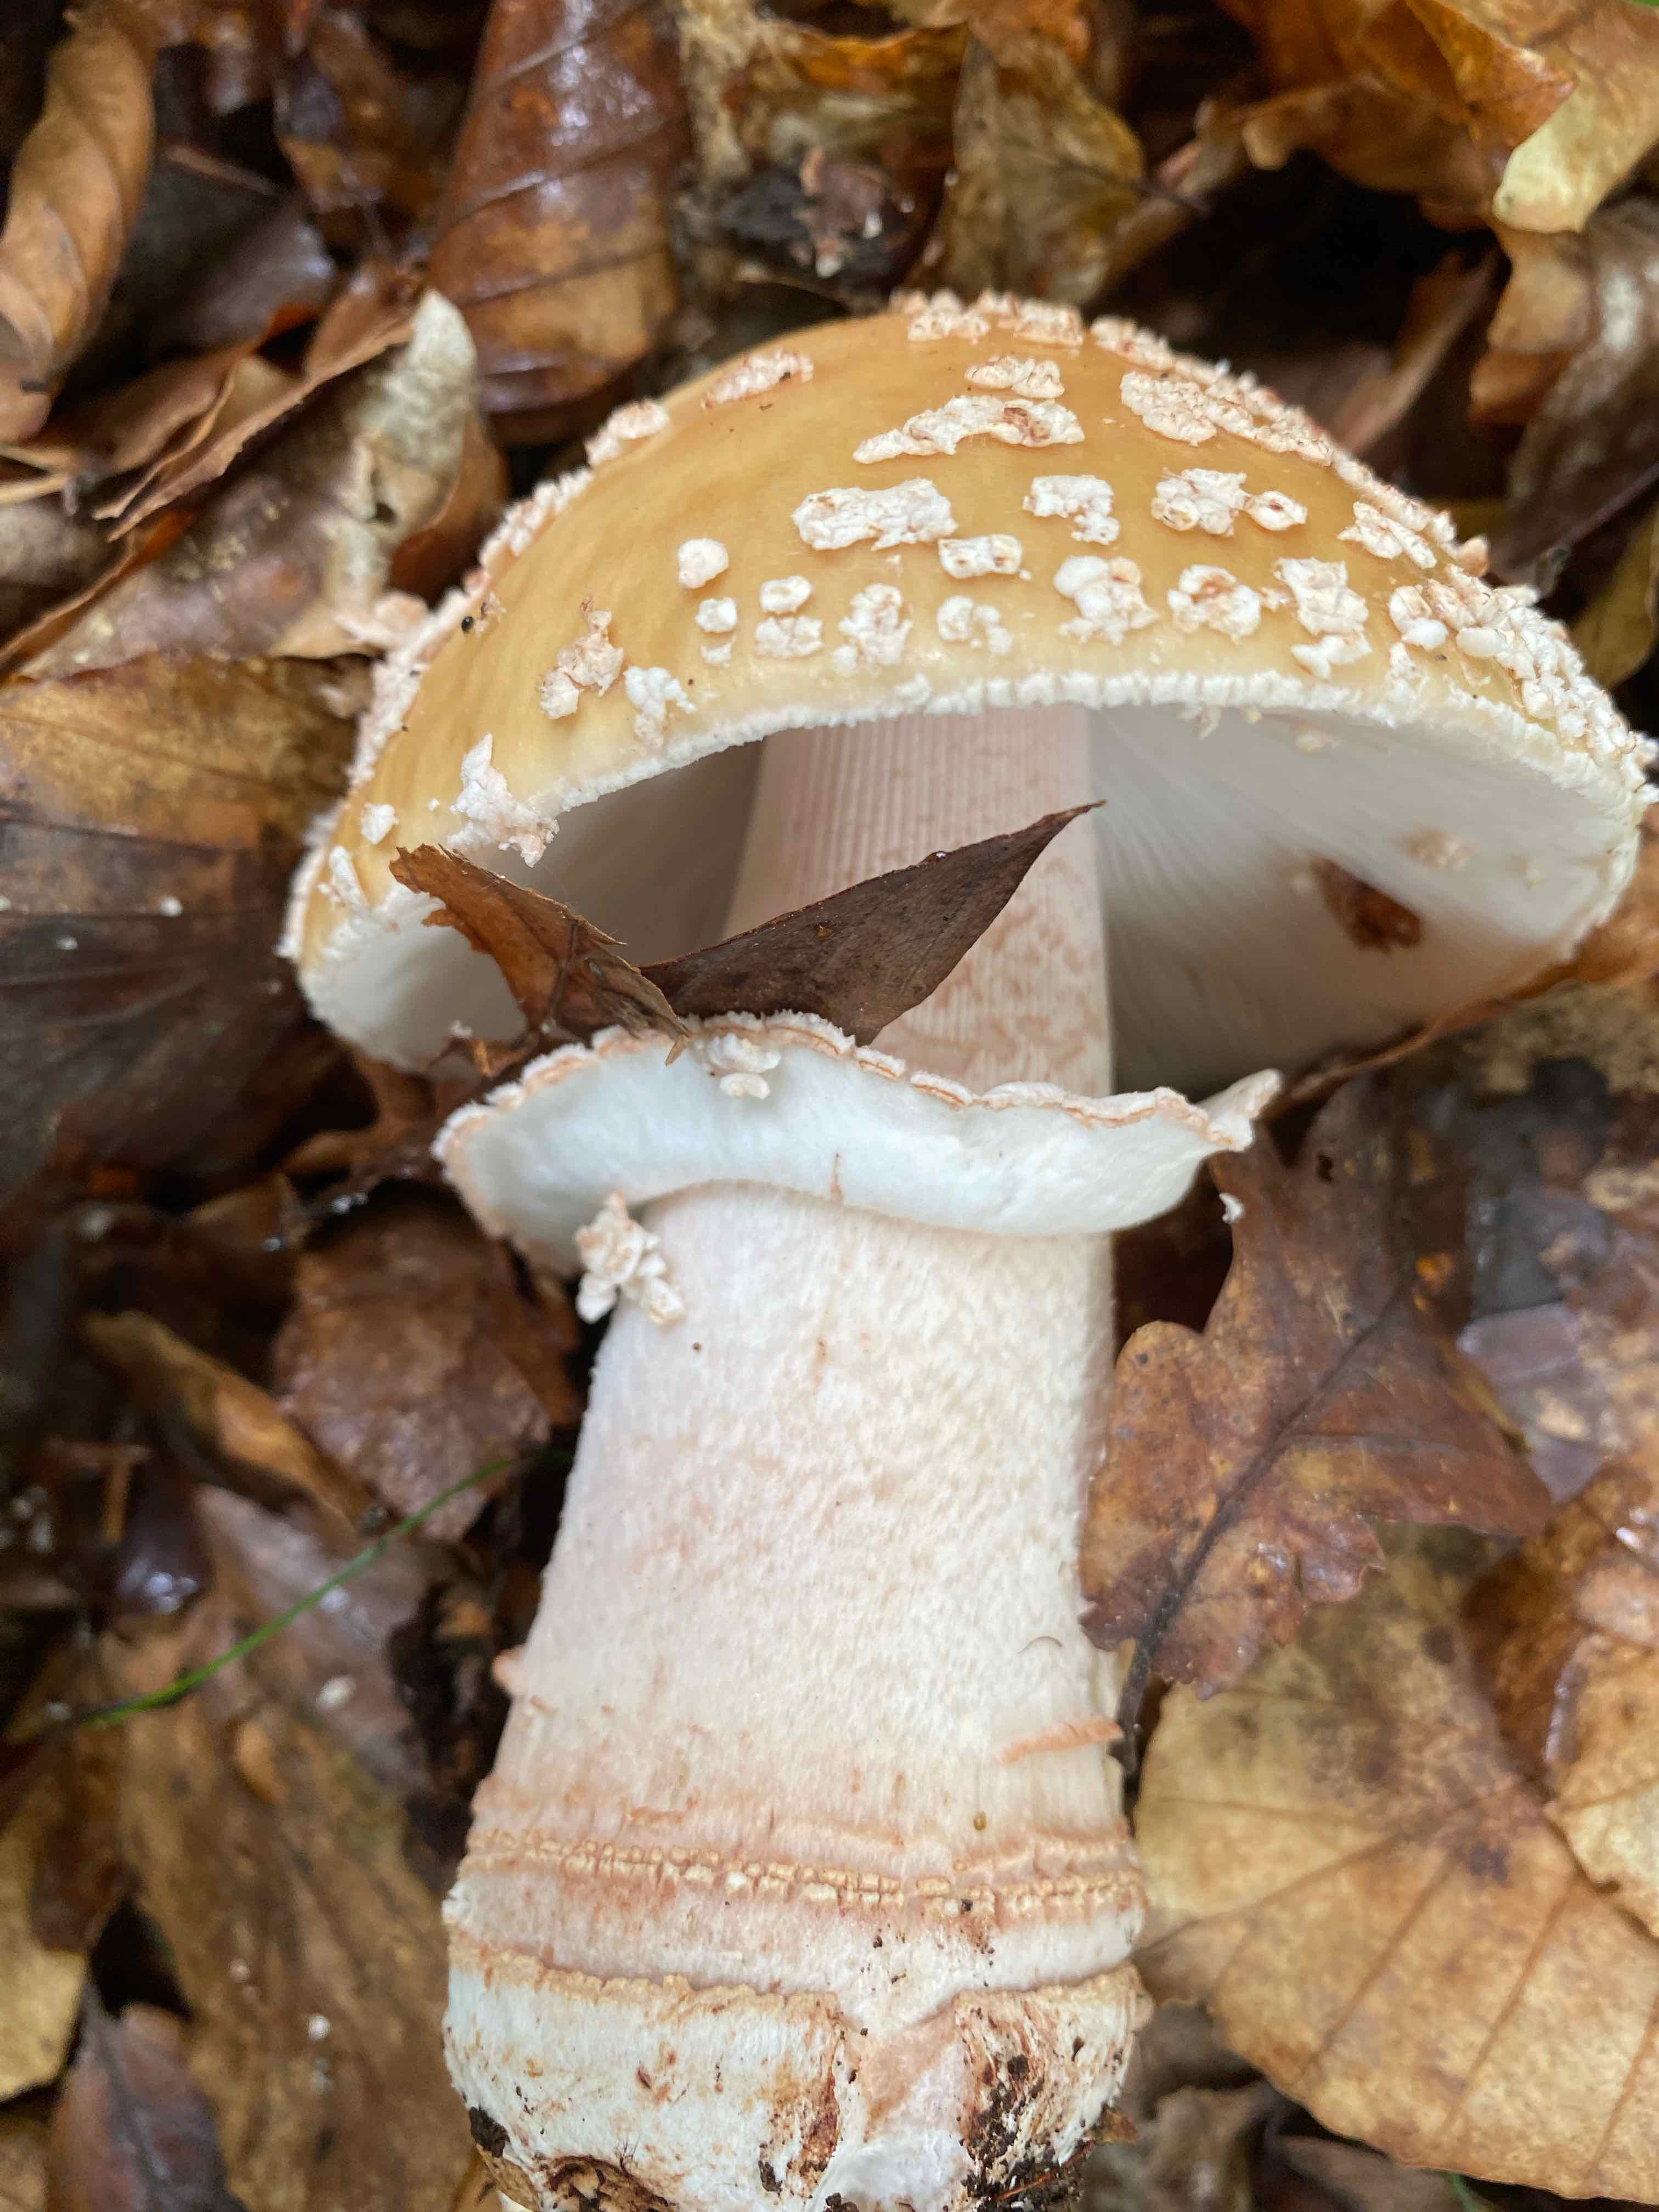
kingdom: Fungi
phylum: Basidiomycota
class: Agaricomycetes
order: Agaricales
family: Amanitaceae
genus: Amanita
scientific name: Amanita rubescens
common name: rødmende fluesvamp
